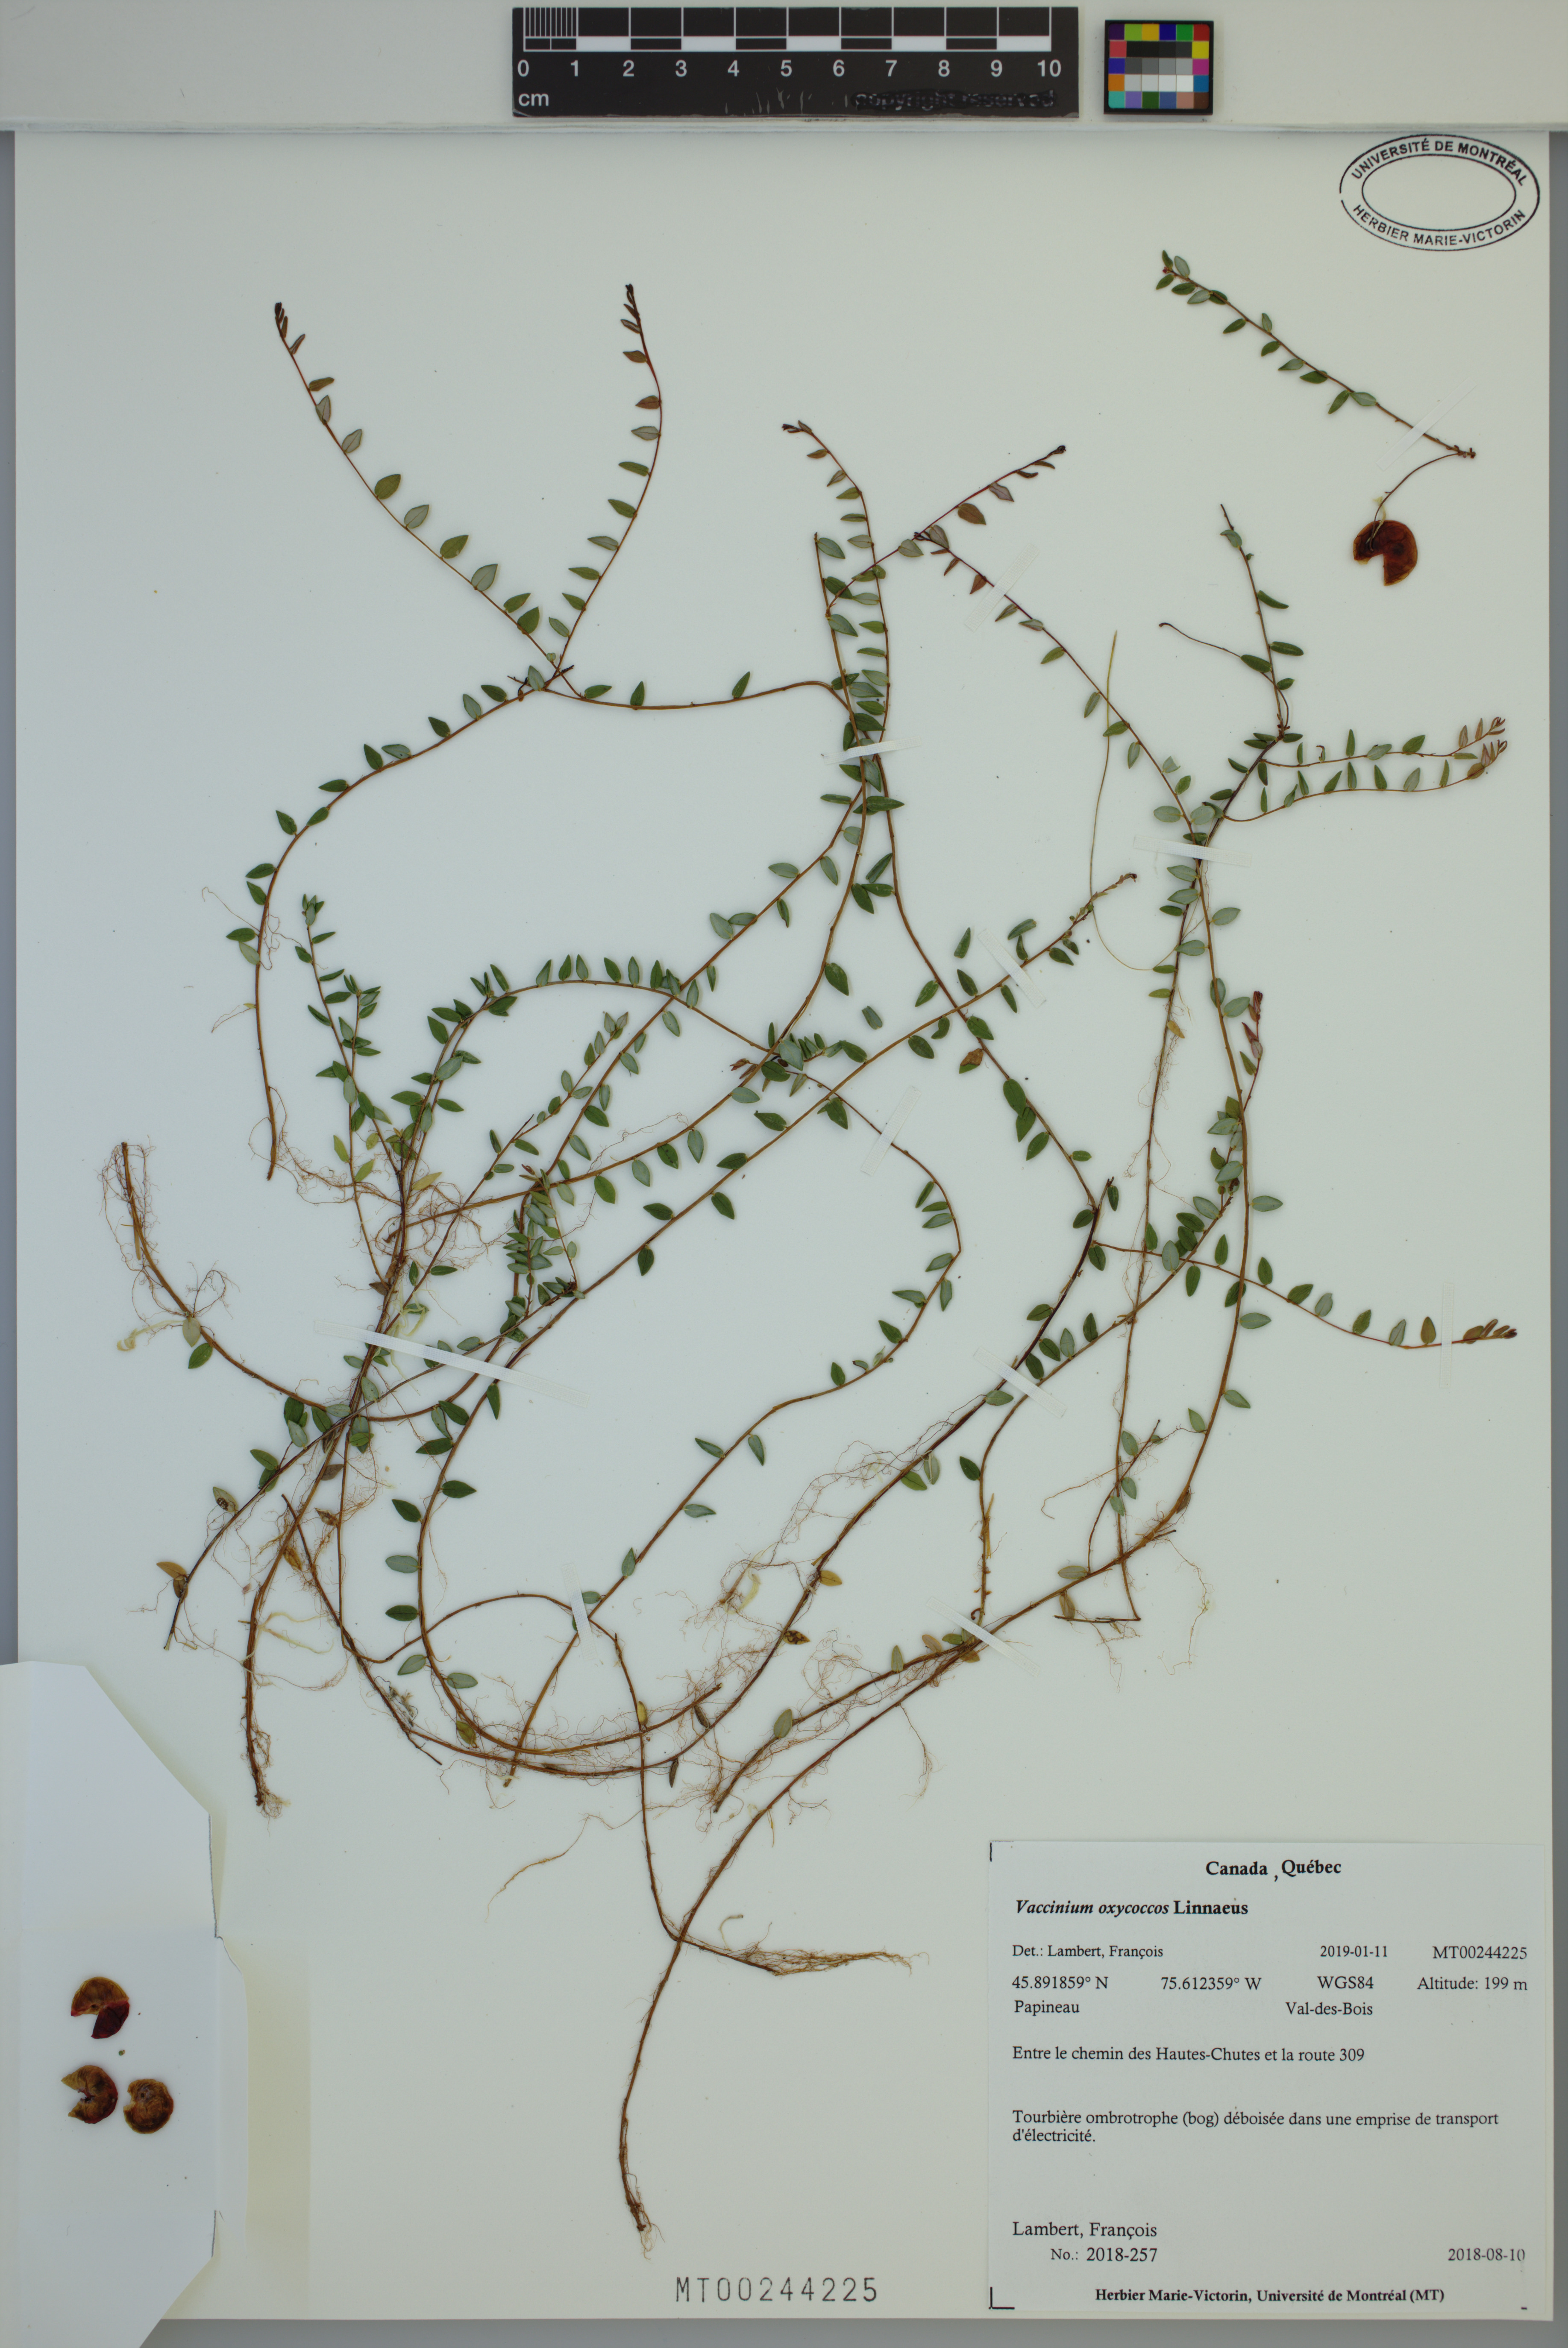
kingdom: Plantae
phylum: Tracheophyta
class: Magnoliopsida
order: Ericales
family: Ericaceae
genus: Vaccinium
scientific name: Vaccinium oxycoccos
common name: Cranberry
